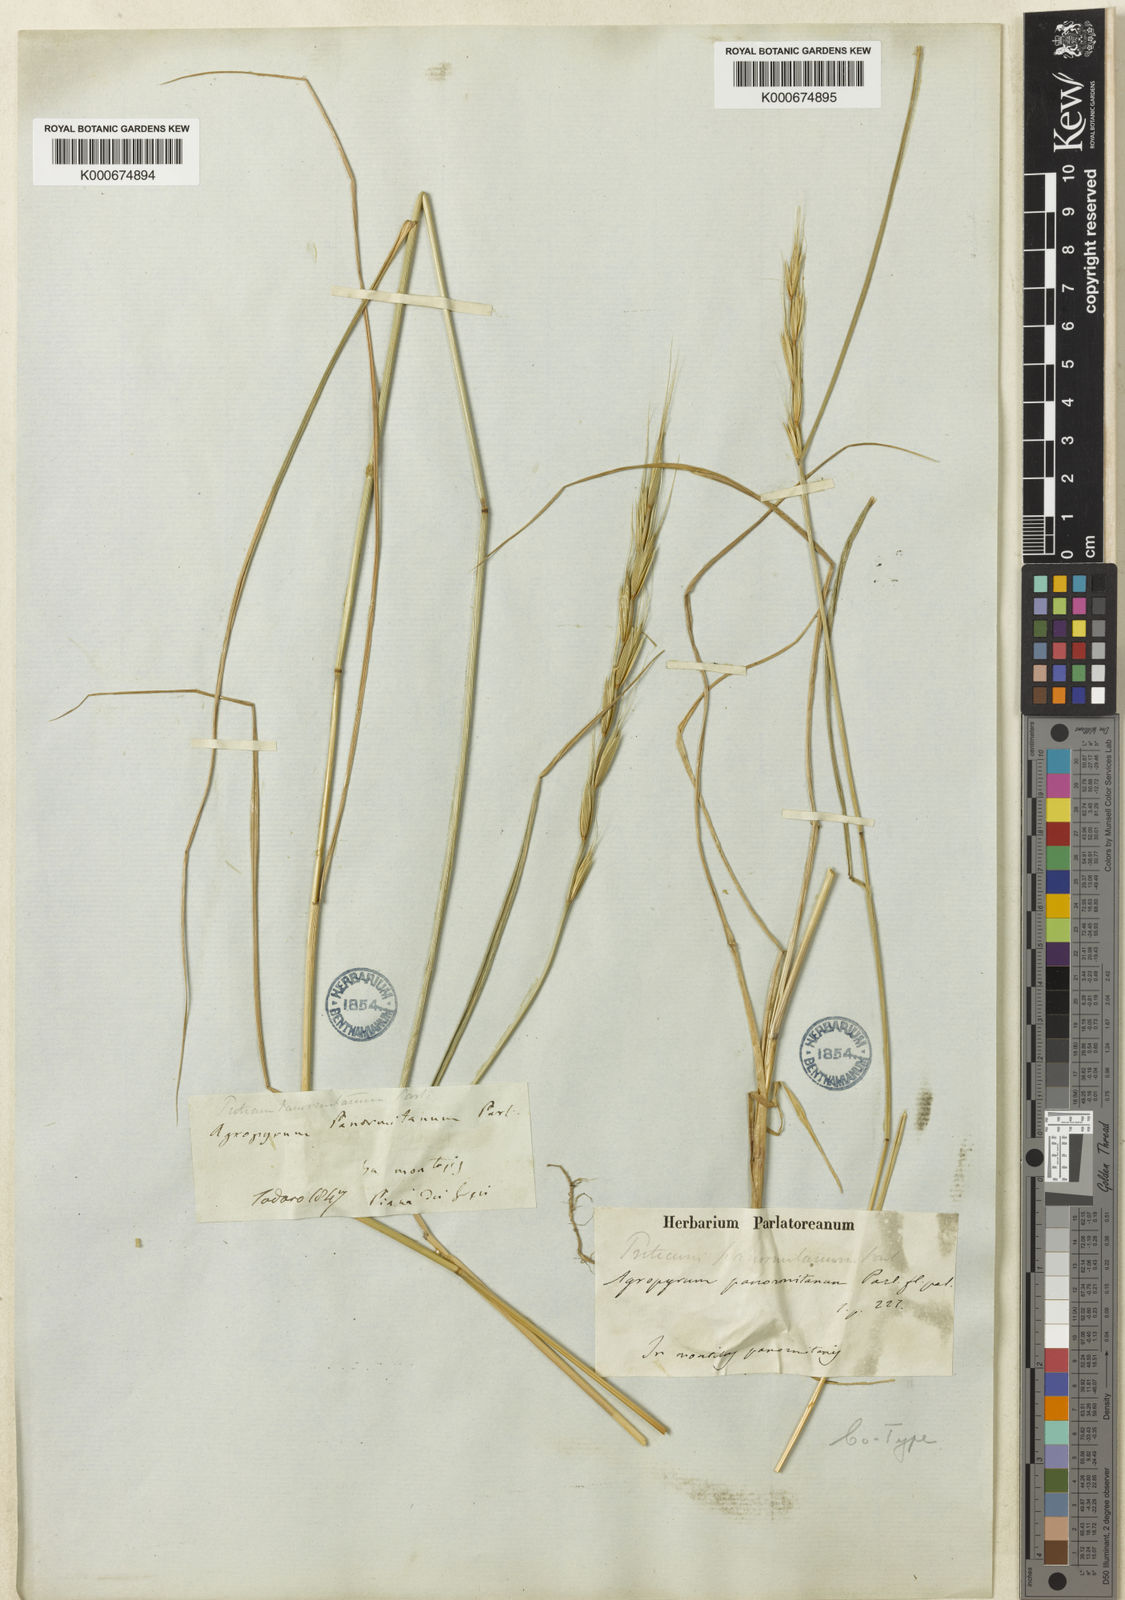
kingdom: Plantae
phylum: Tracheophyta
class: Liliopsida
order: Poales
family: Poaceae
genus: Elymus
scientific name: Elymus panormitanus
